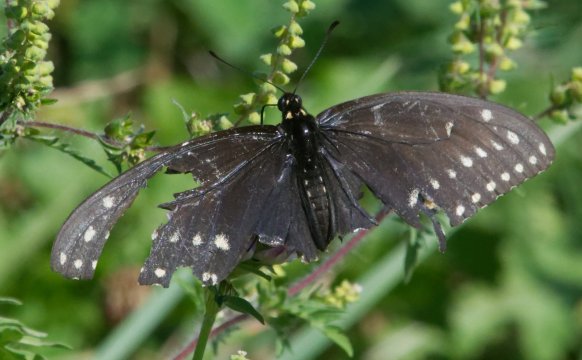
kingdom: Animalia
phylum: Arthropoda
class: Insecta
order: Lepidoptera
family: Papilionidae
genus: Papilio
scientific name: Papilio polyxenes
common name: Black Swallowtail
